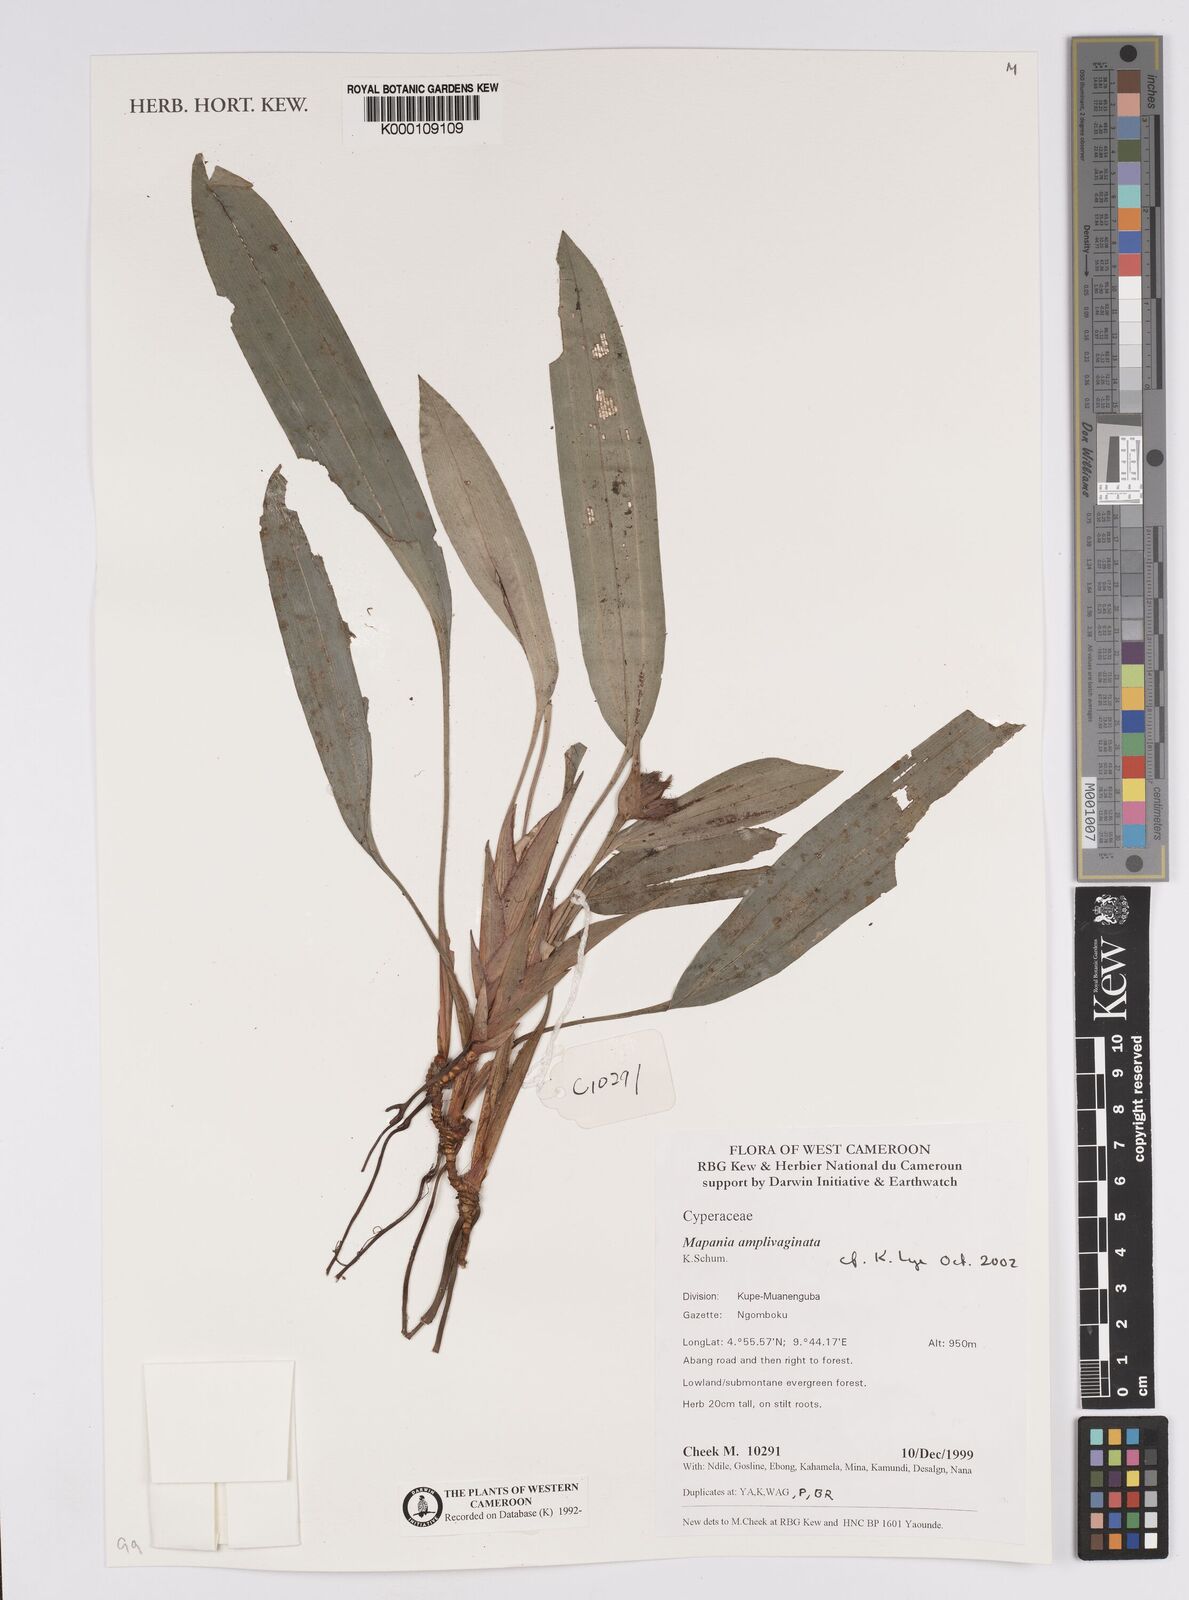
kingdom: Plantae
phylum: Tracheophyta
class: Liliopsida
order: Poales
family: Cyperaceae
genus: Mapania
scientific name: Mapania amplivaginata
